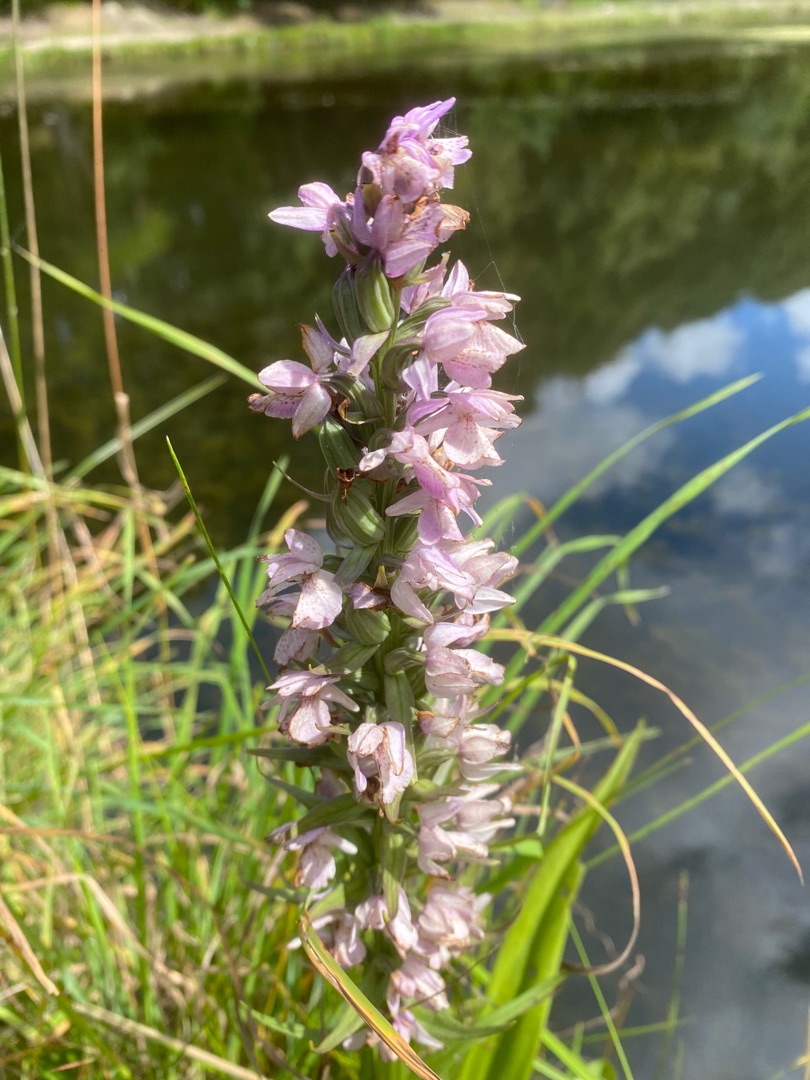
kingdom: Plantae
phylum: Tracheophyta
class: Liliopsida
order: Asparagales
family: Orchidaceae
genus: Dactylorhiza
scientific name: Dactylorhiza incarnata
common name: Kødfarvet gøgeurt
